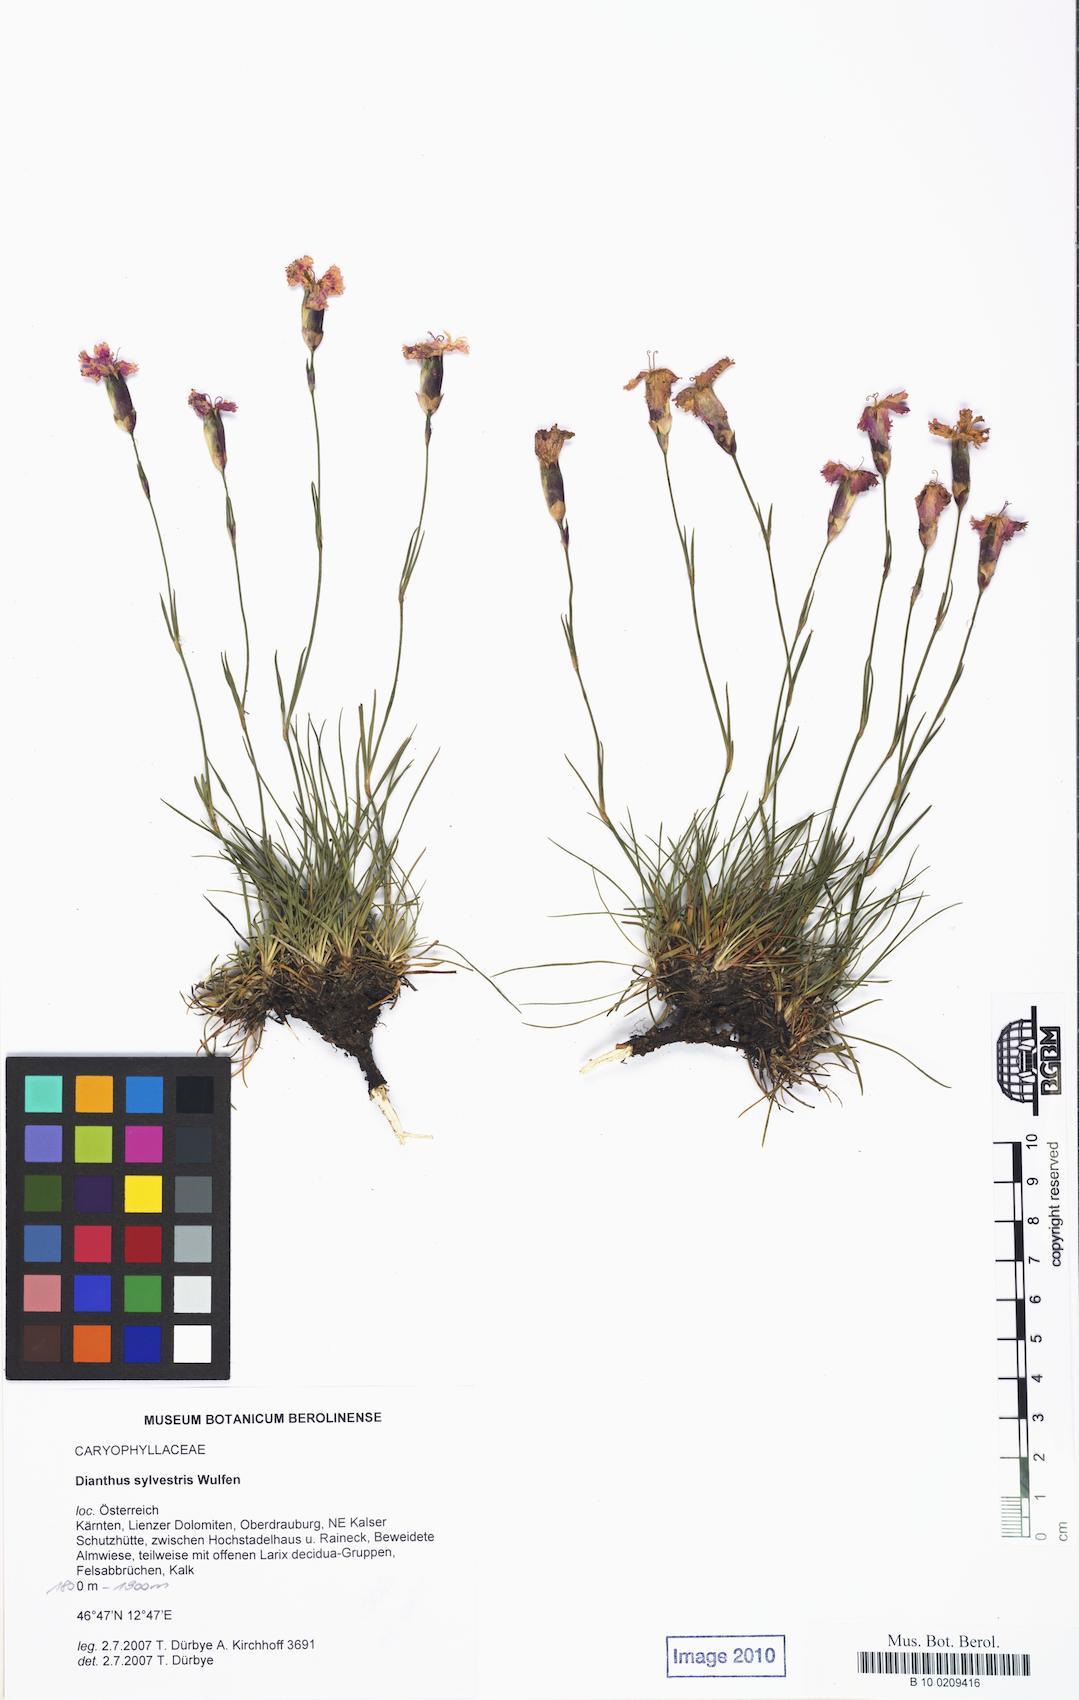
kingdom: Plantae
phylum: Tracheophyta
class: Magnoliopsida
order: Asterales
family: Asteraceae
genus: Carduus
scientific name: Carduus defloratus
